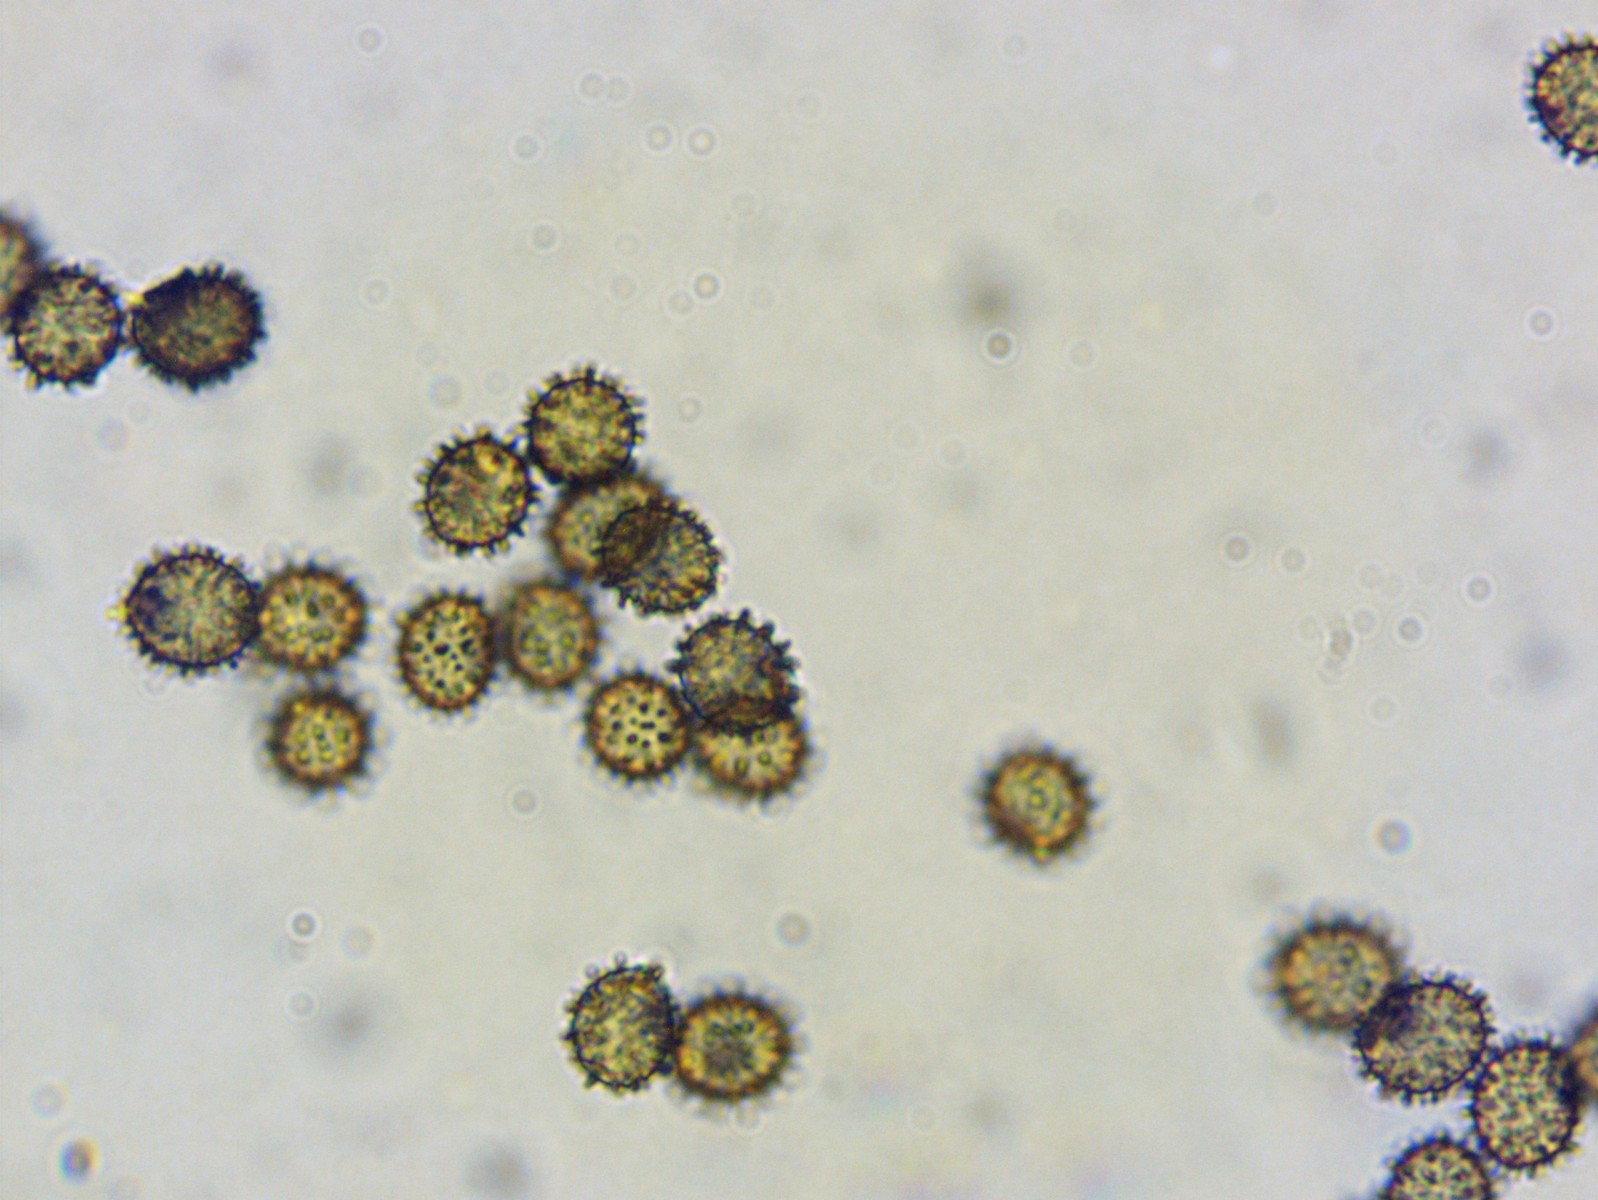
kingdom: Fungi
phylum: Basidiomycota
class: Agaricomycetes
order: Russulales
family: Russulaceae
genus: Russula
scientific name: Russula firmula
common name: nåleskarp skørhat
